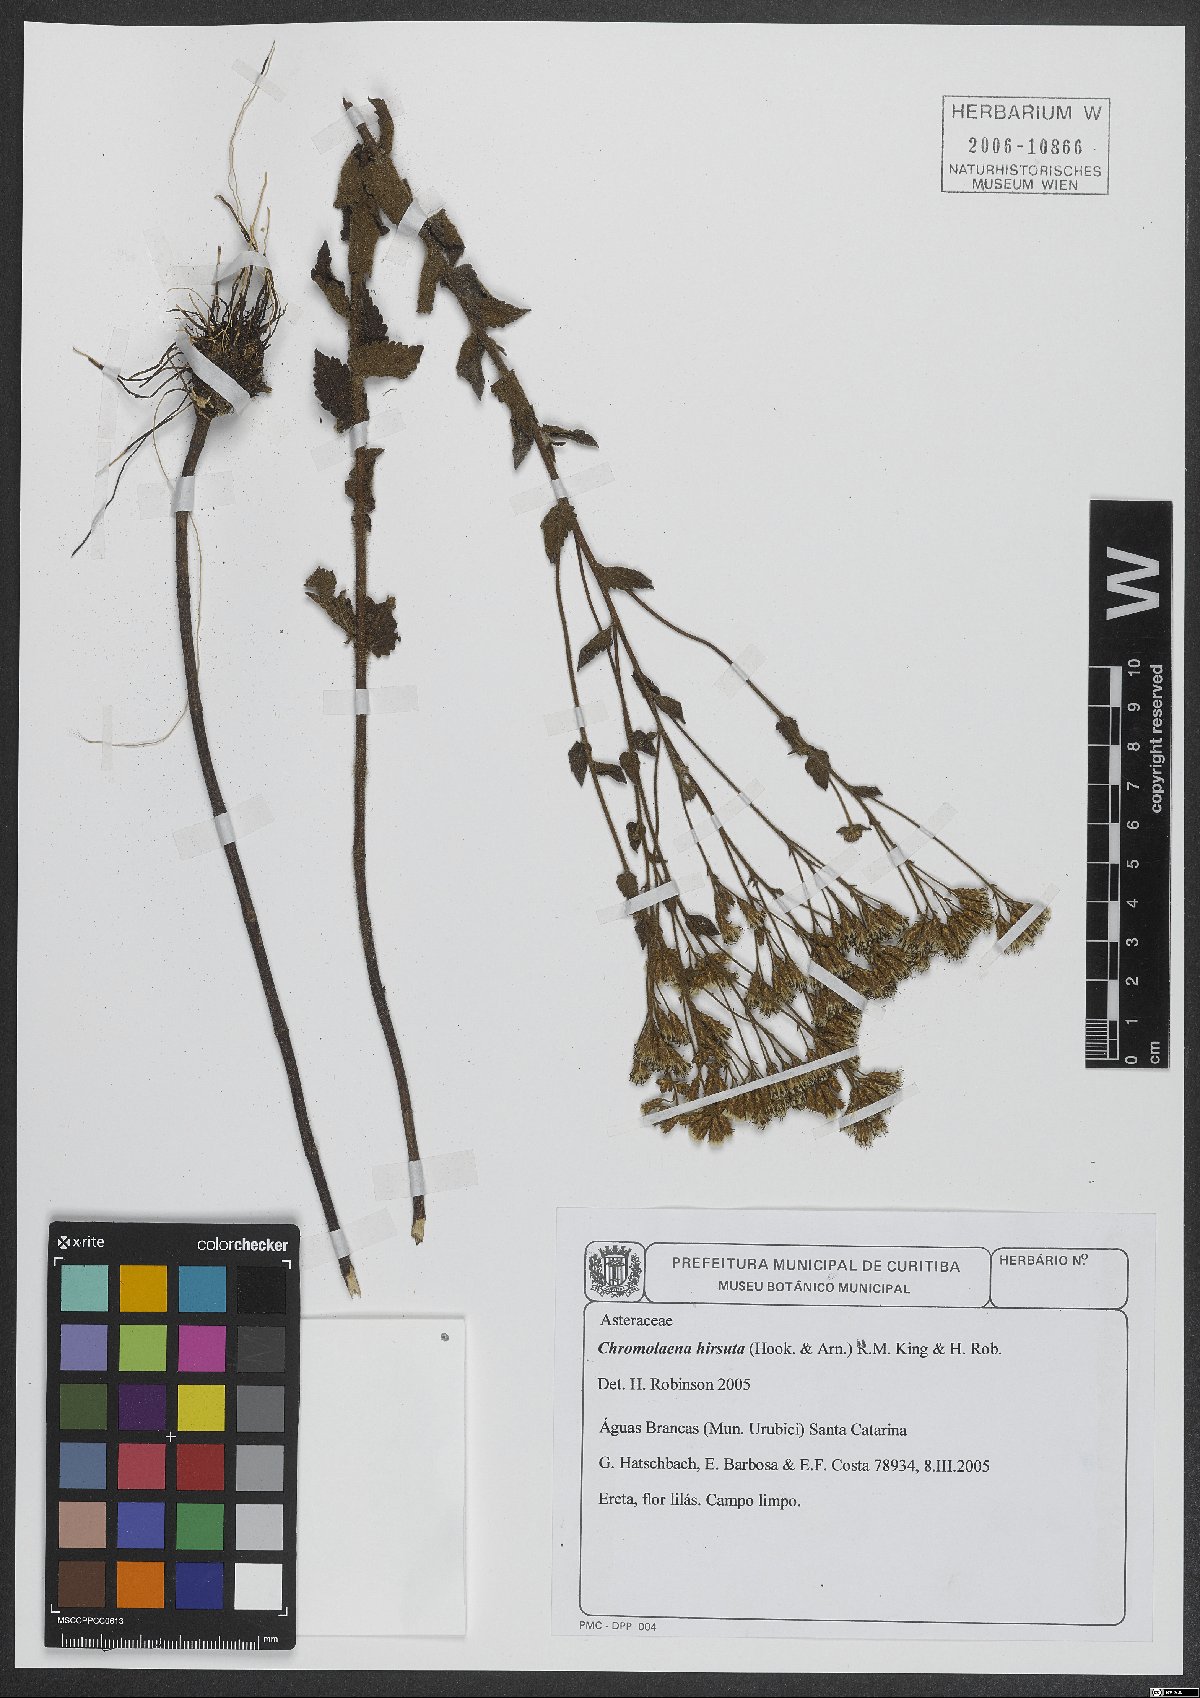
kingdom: Plantae
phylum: Tracheophyta
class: Magnoliopsida
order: Asterales
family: Asteraceae
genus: Chromolaena
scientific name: Chromolaena hirsuta
